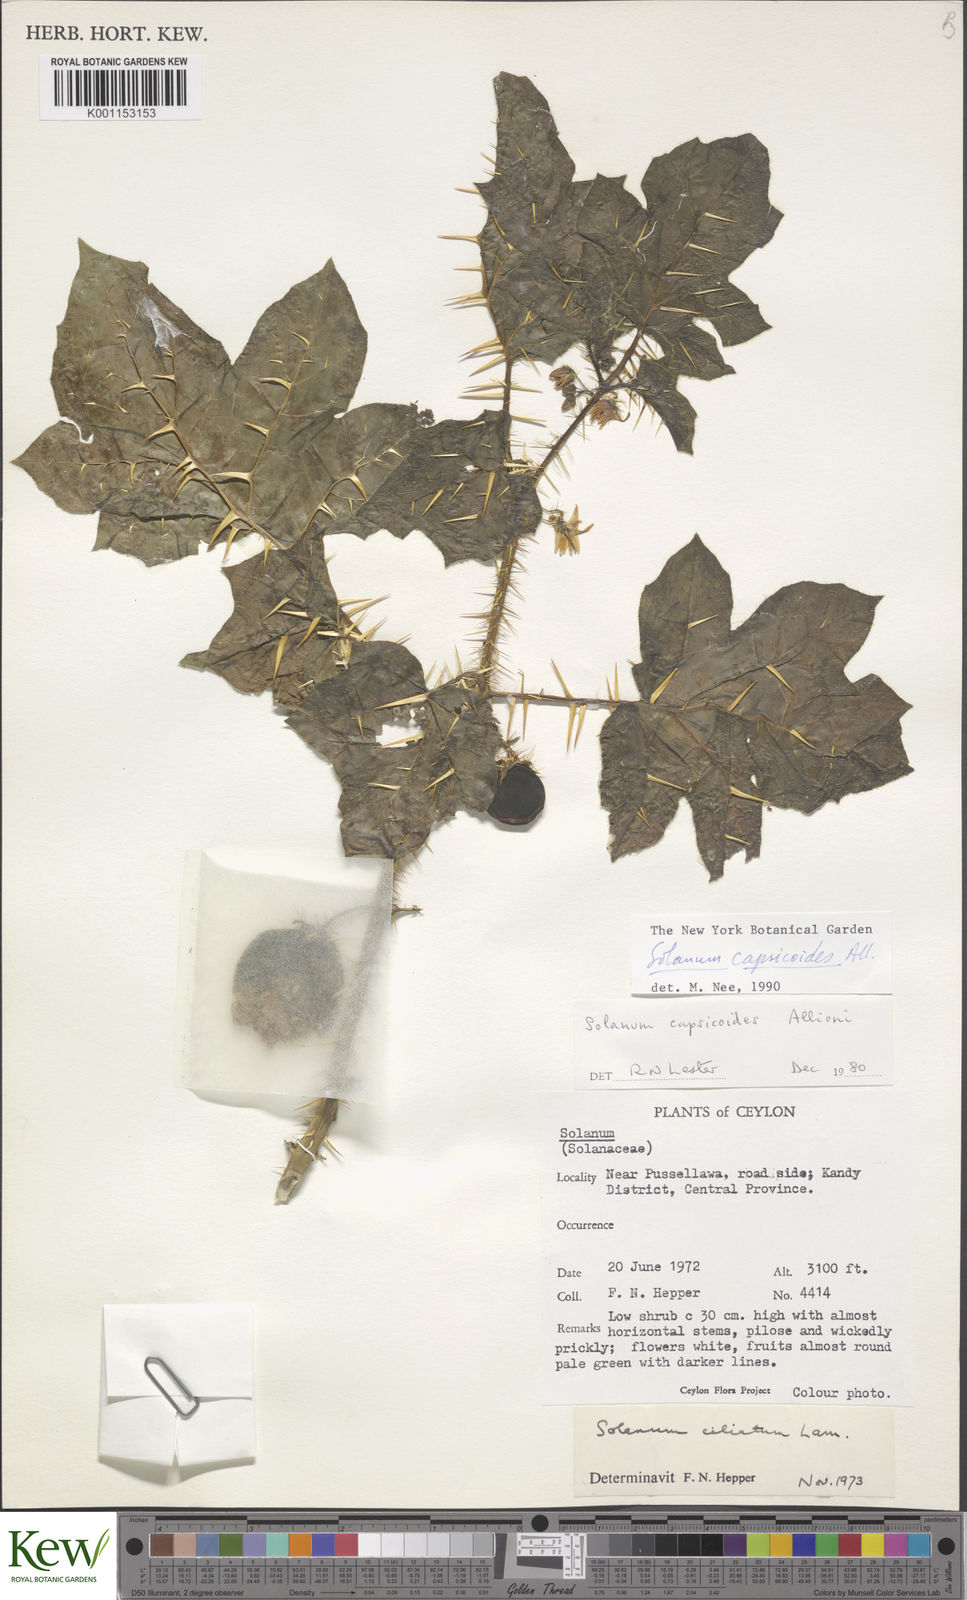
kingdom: Plantae
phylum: Tracheophyta
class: Magnoliopsida
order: Solanales
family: Solanaceae
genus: Solanum
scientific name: Solanum capsicoides
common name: Cockroach berry
